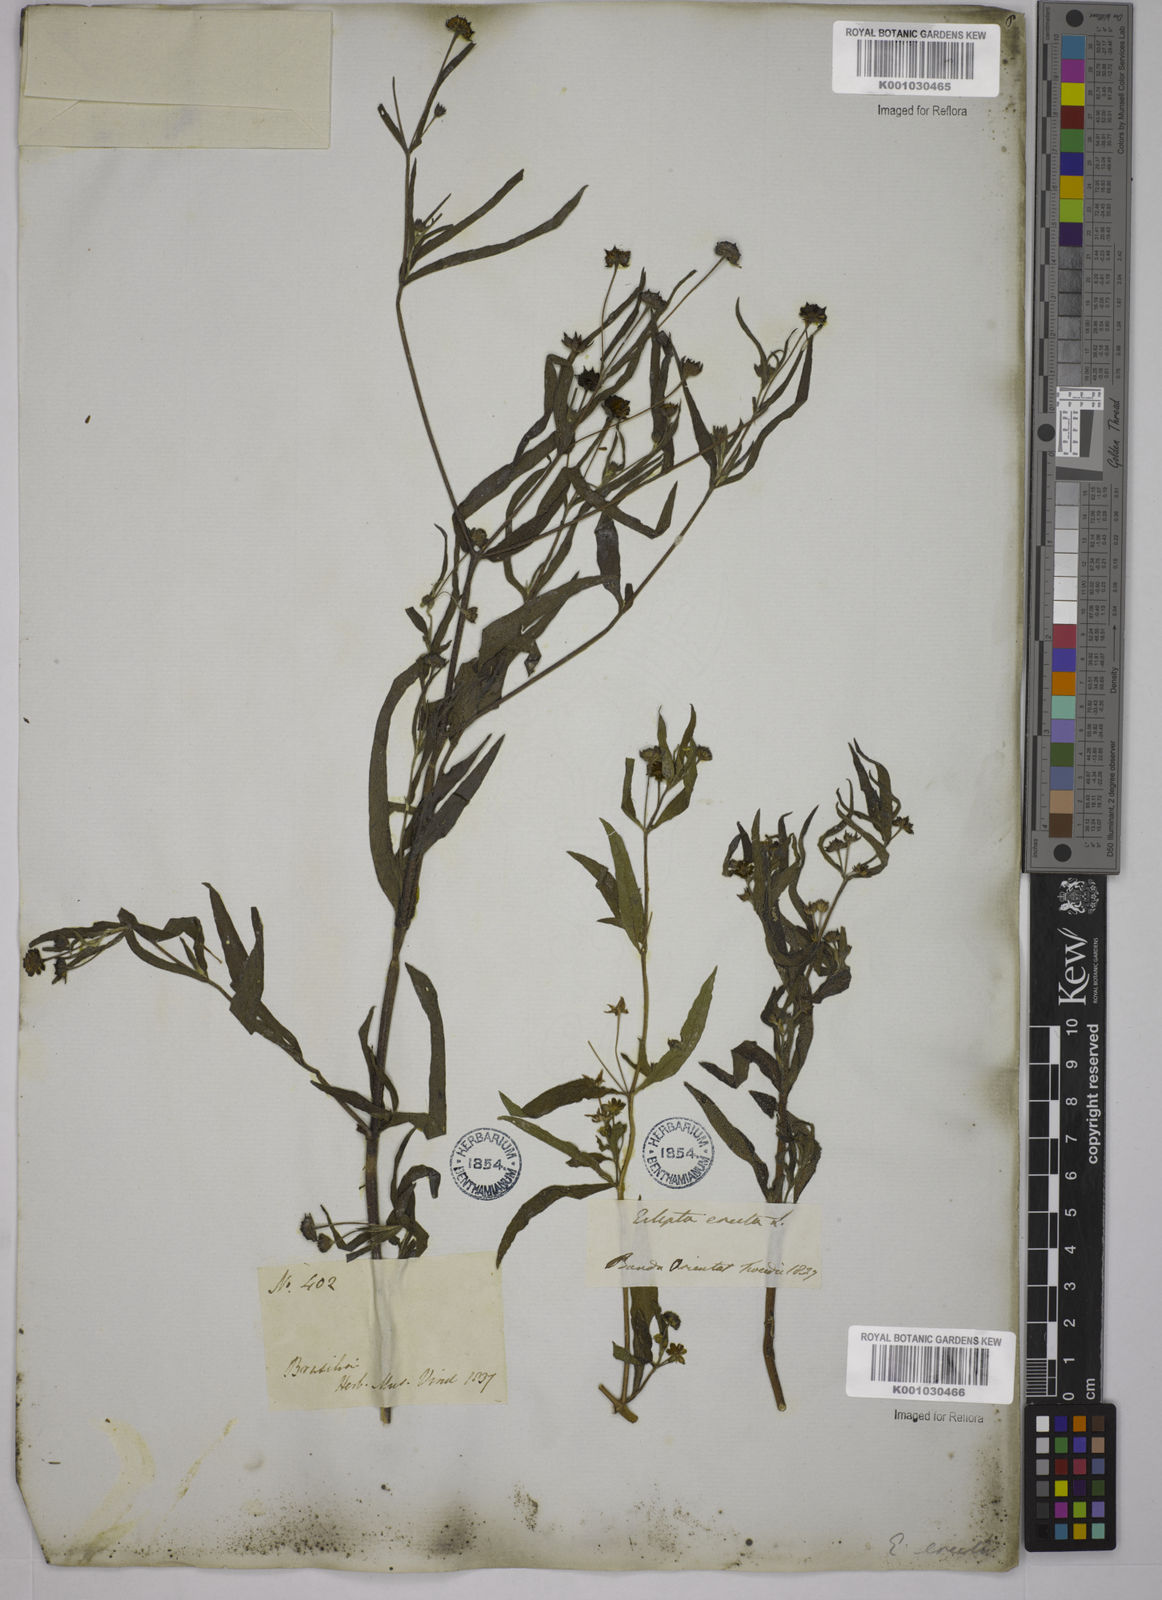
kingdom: Plantae
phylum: Tracheophyta
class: Magnoliopsida
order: Asterales
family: Asteraceae
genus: Eclipta
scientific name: Eclipta prostrata
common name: False daisy
